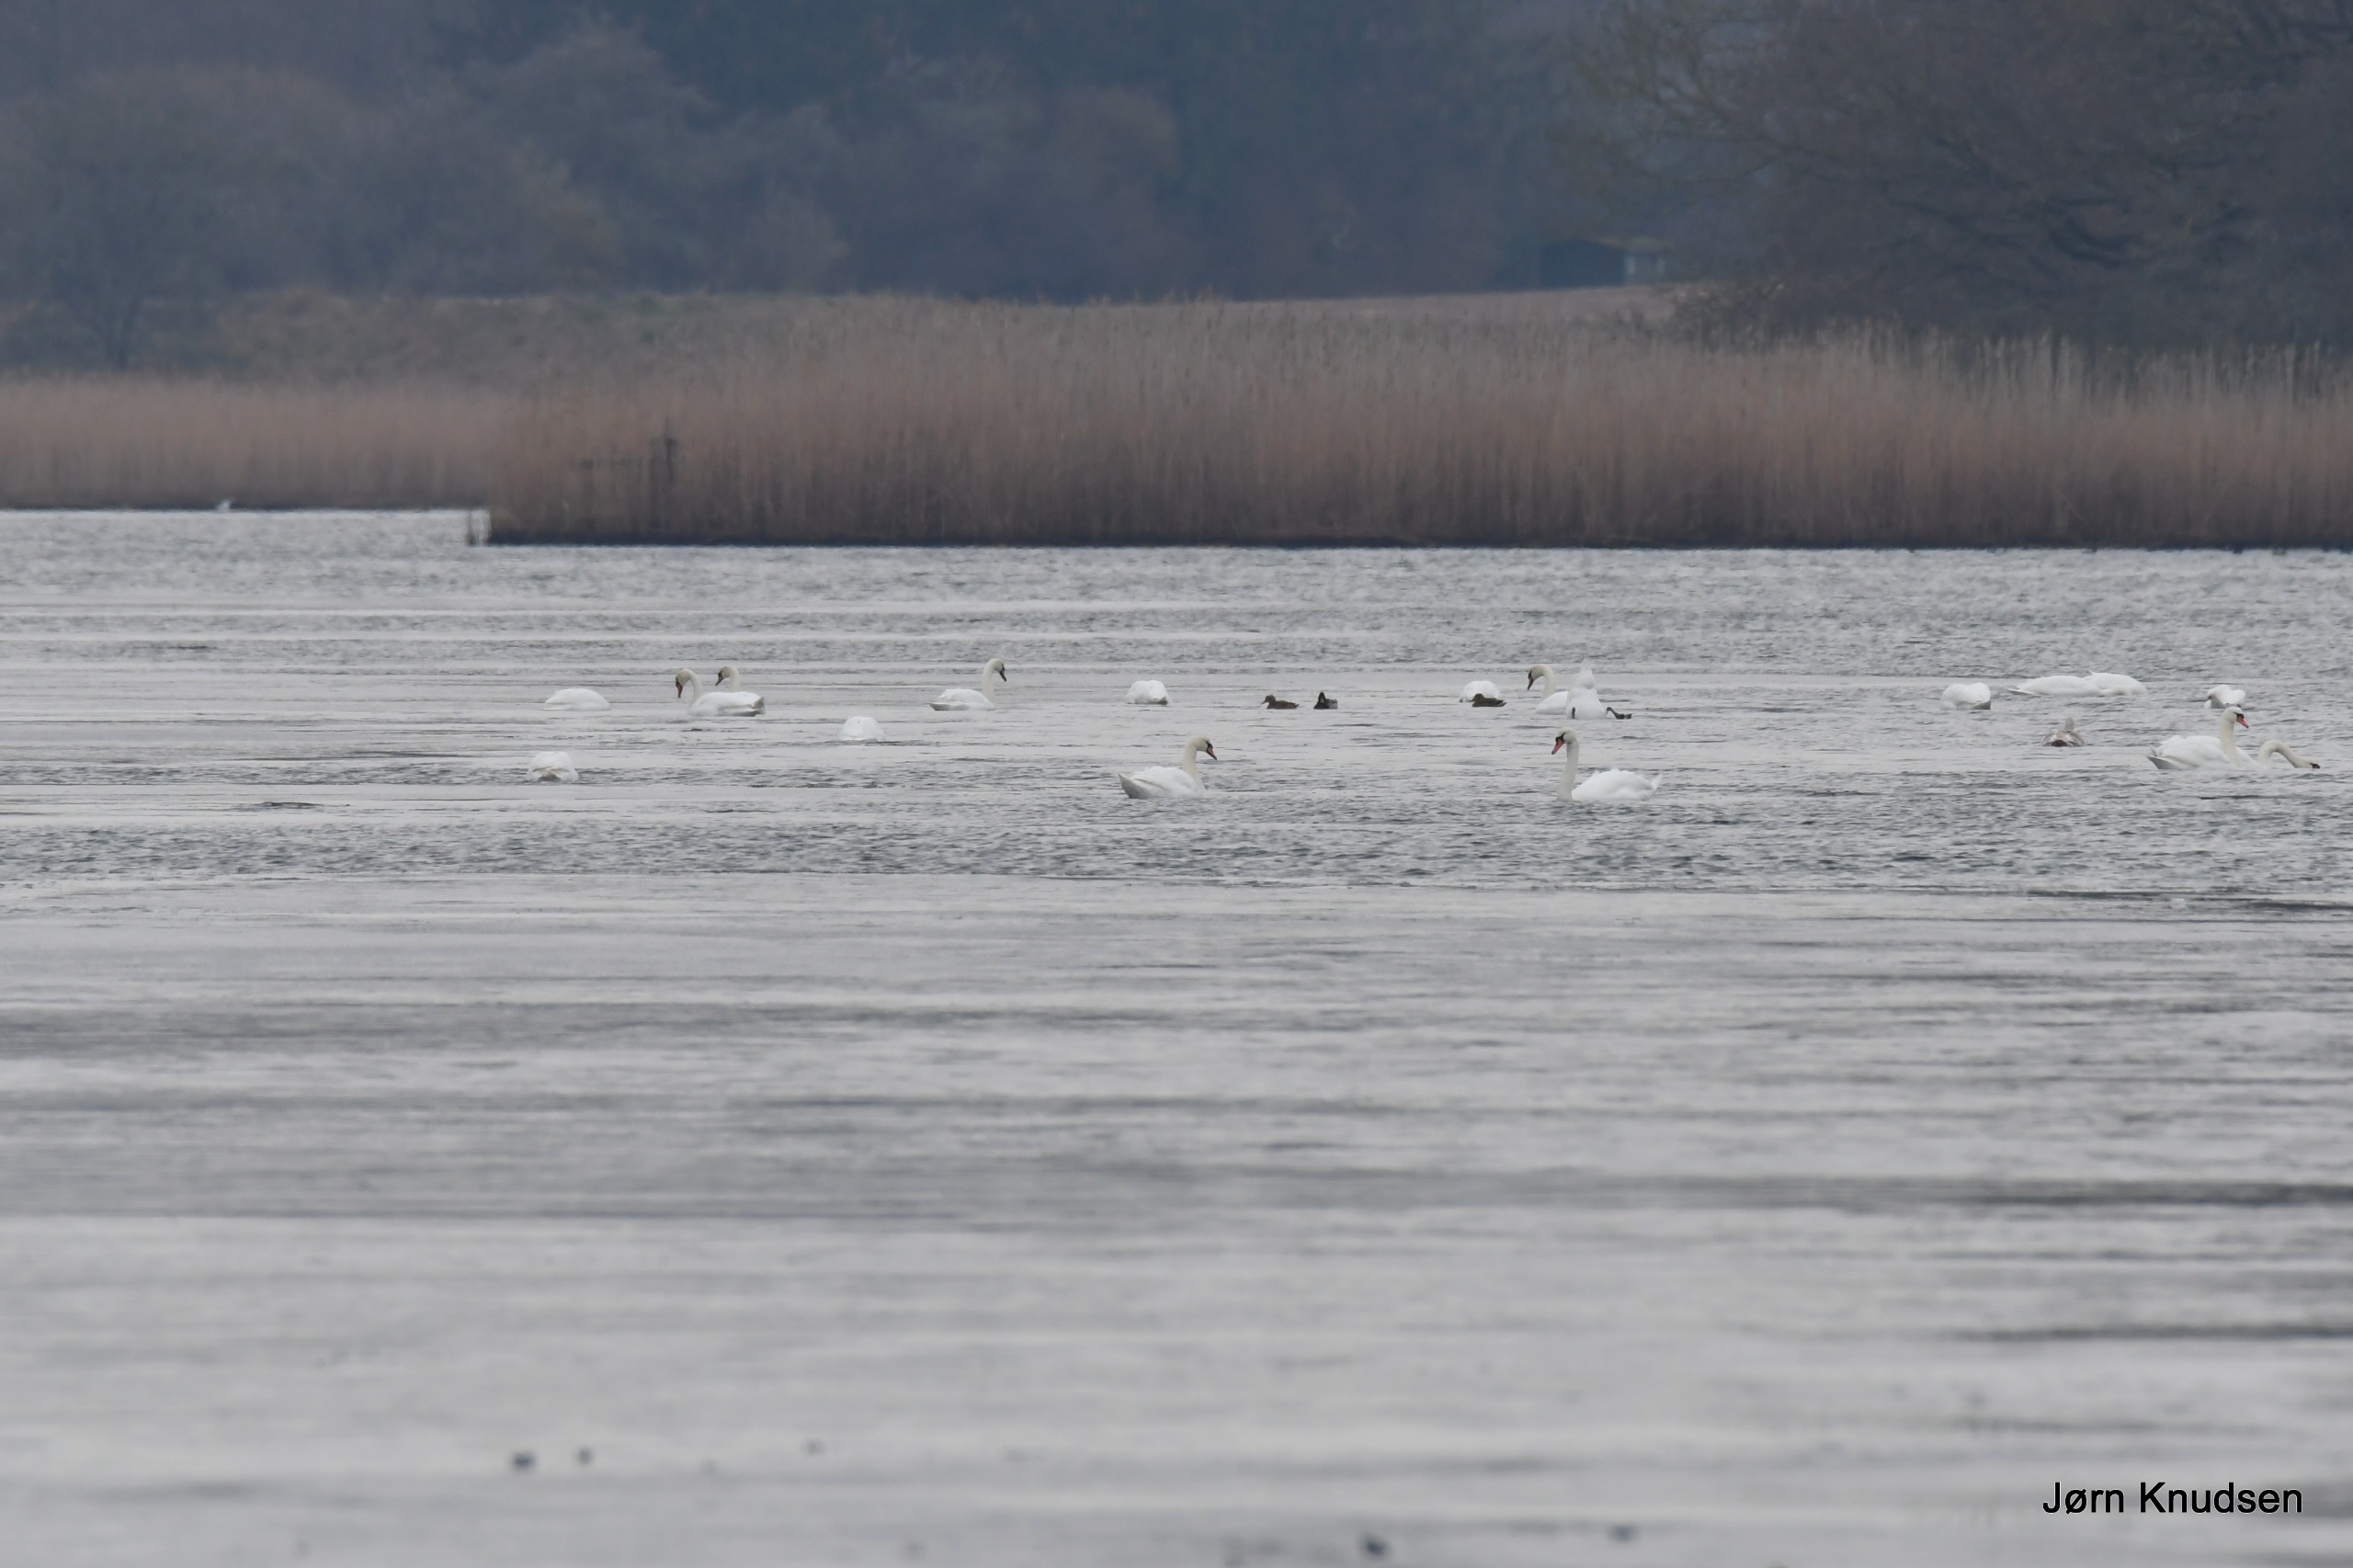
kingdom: Animalia
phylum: Chordata
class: Aves
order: Anseriformes
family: Anatidae
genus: Cygnus
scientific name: Cygnus olor
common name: Knopsvane
